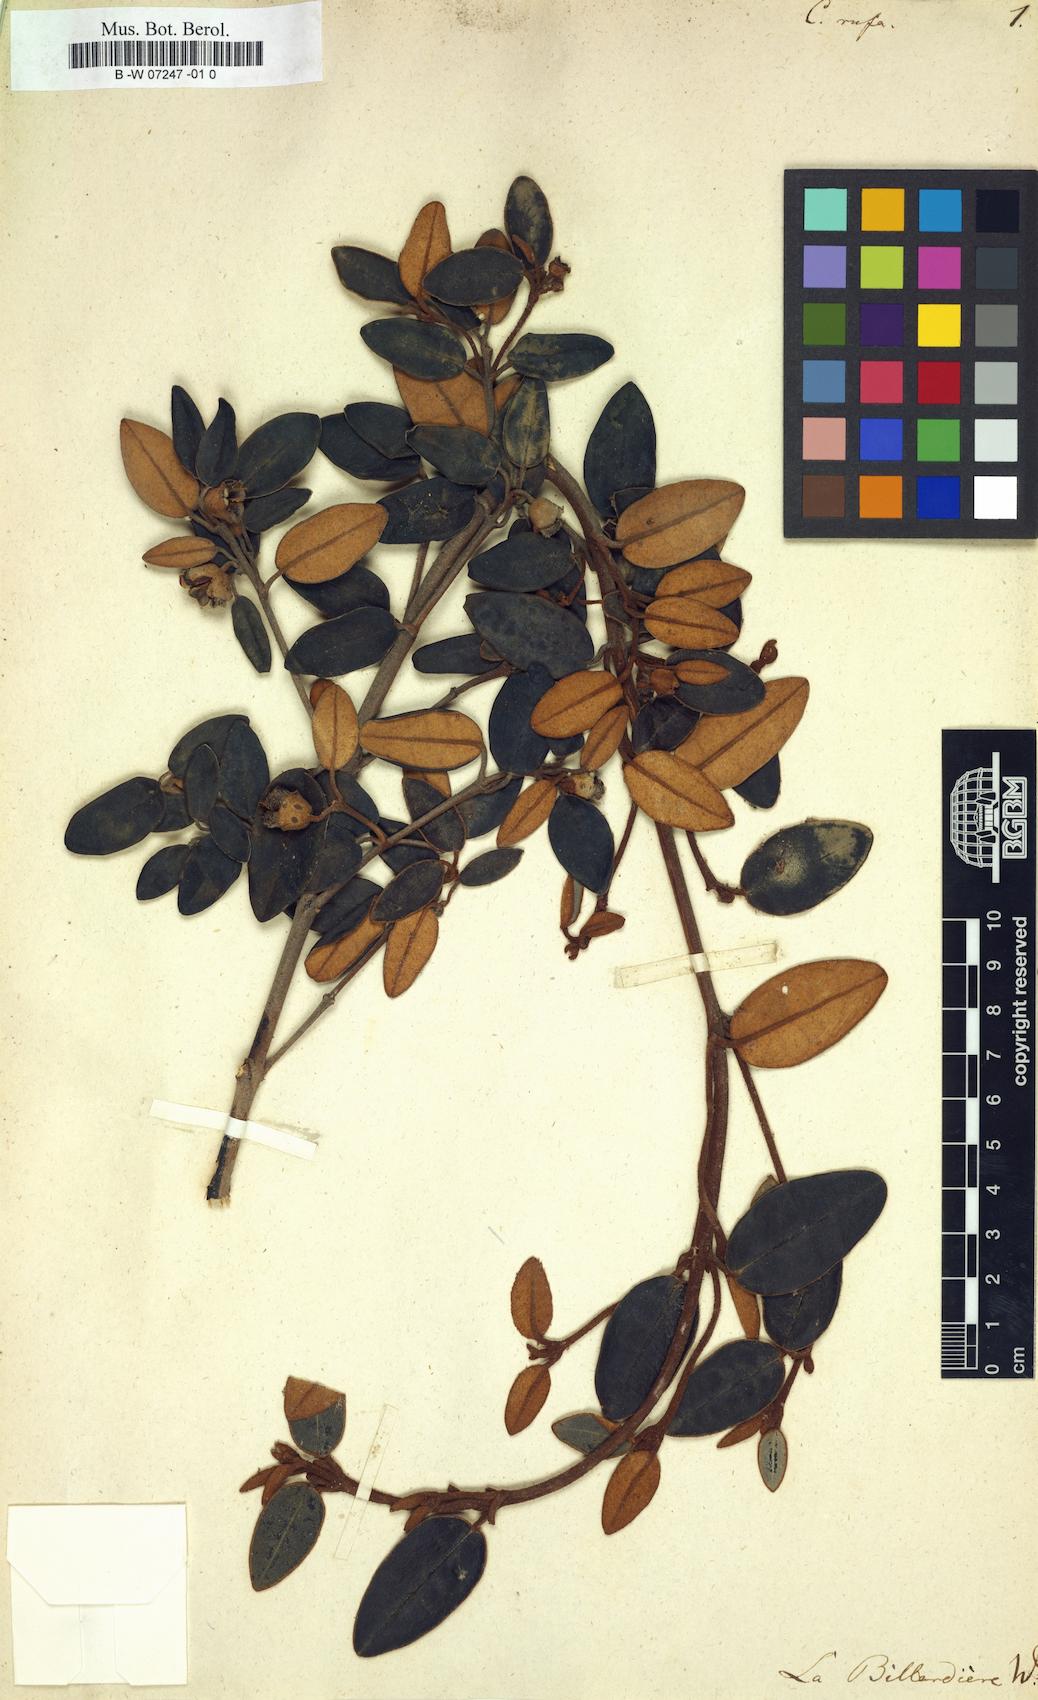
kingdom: Plantae
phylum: Tracheophyta
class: Magnoliopsida
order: Sapindales
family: Rutaceae
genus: Correa
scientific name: Correa alba
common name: White correa
